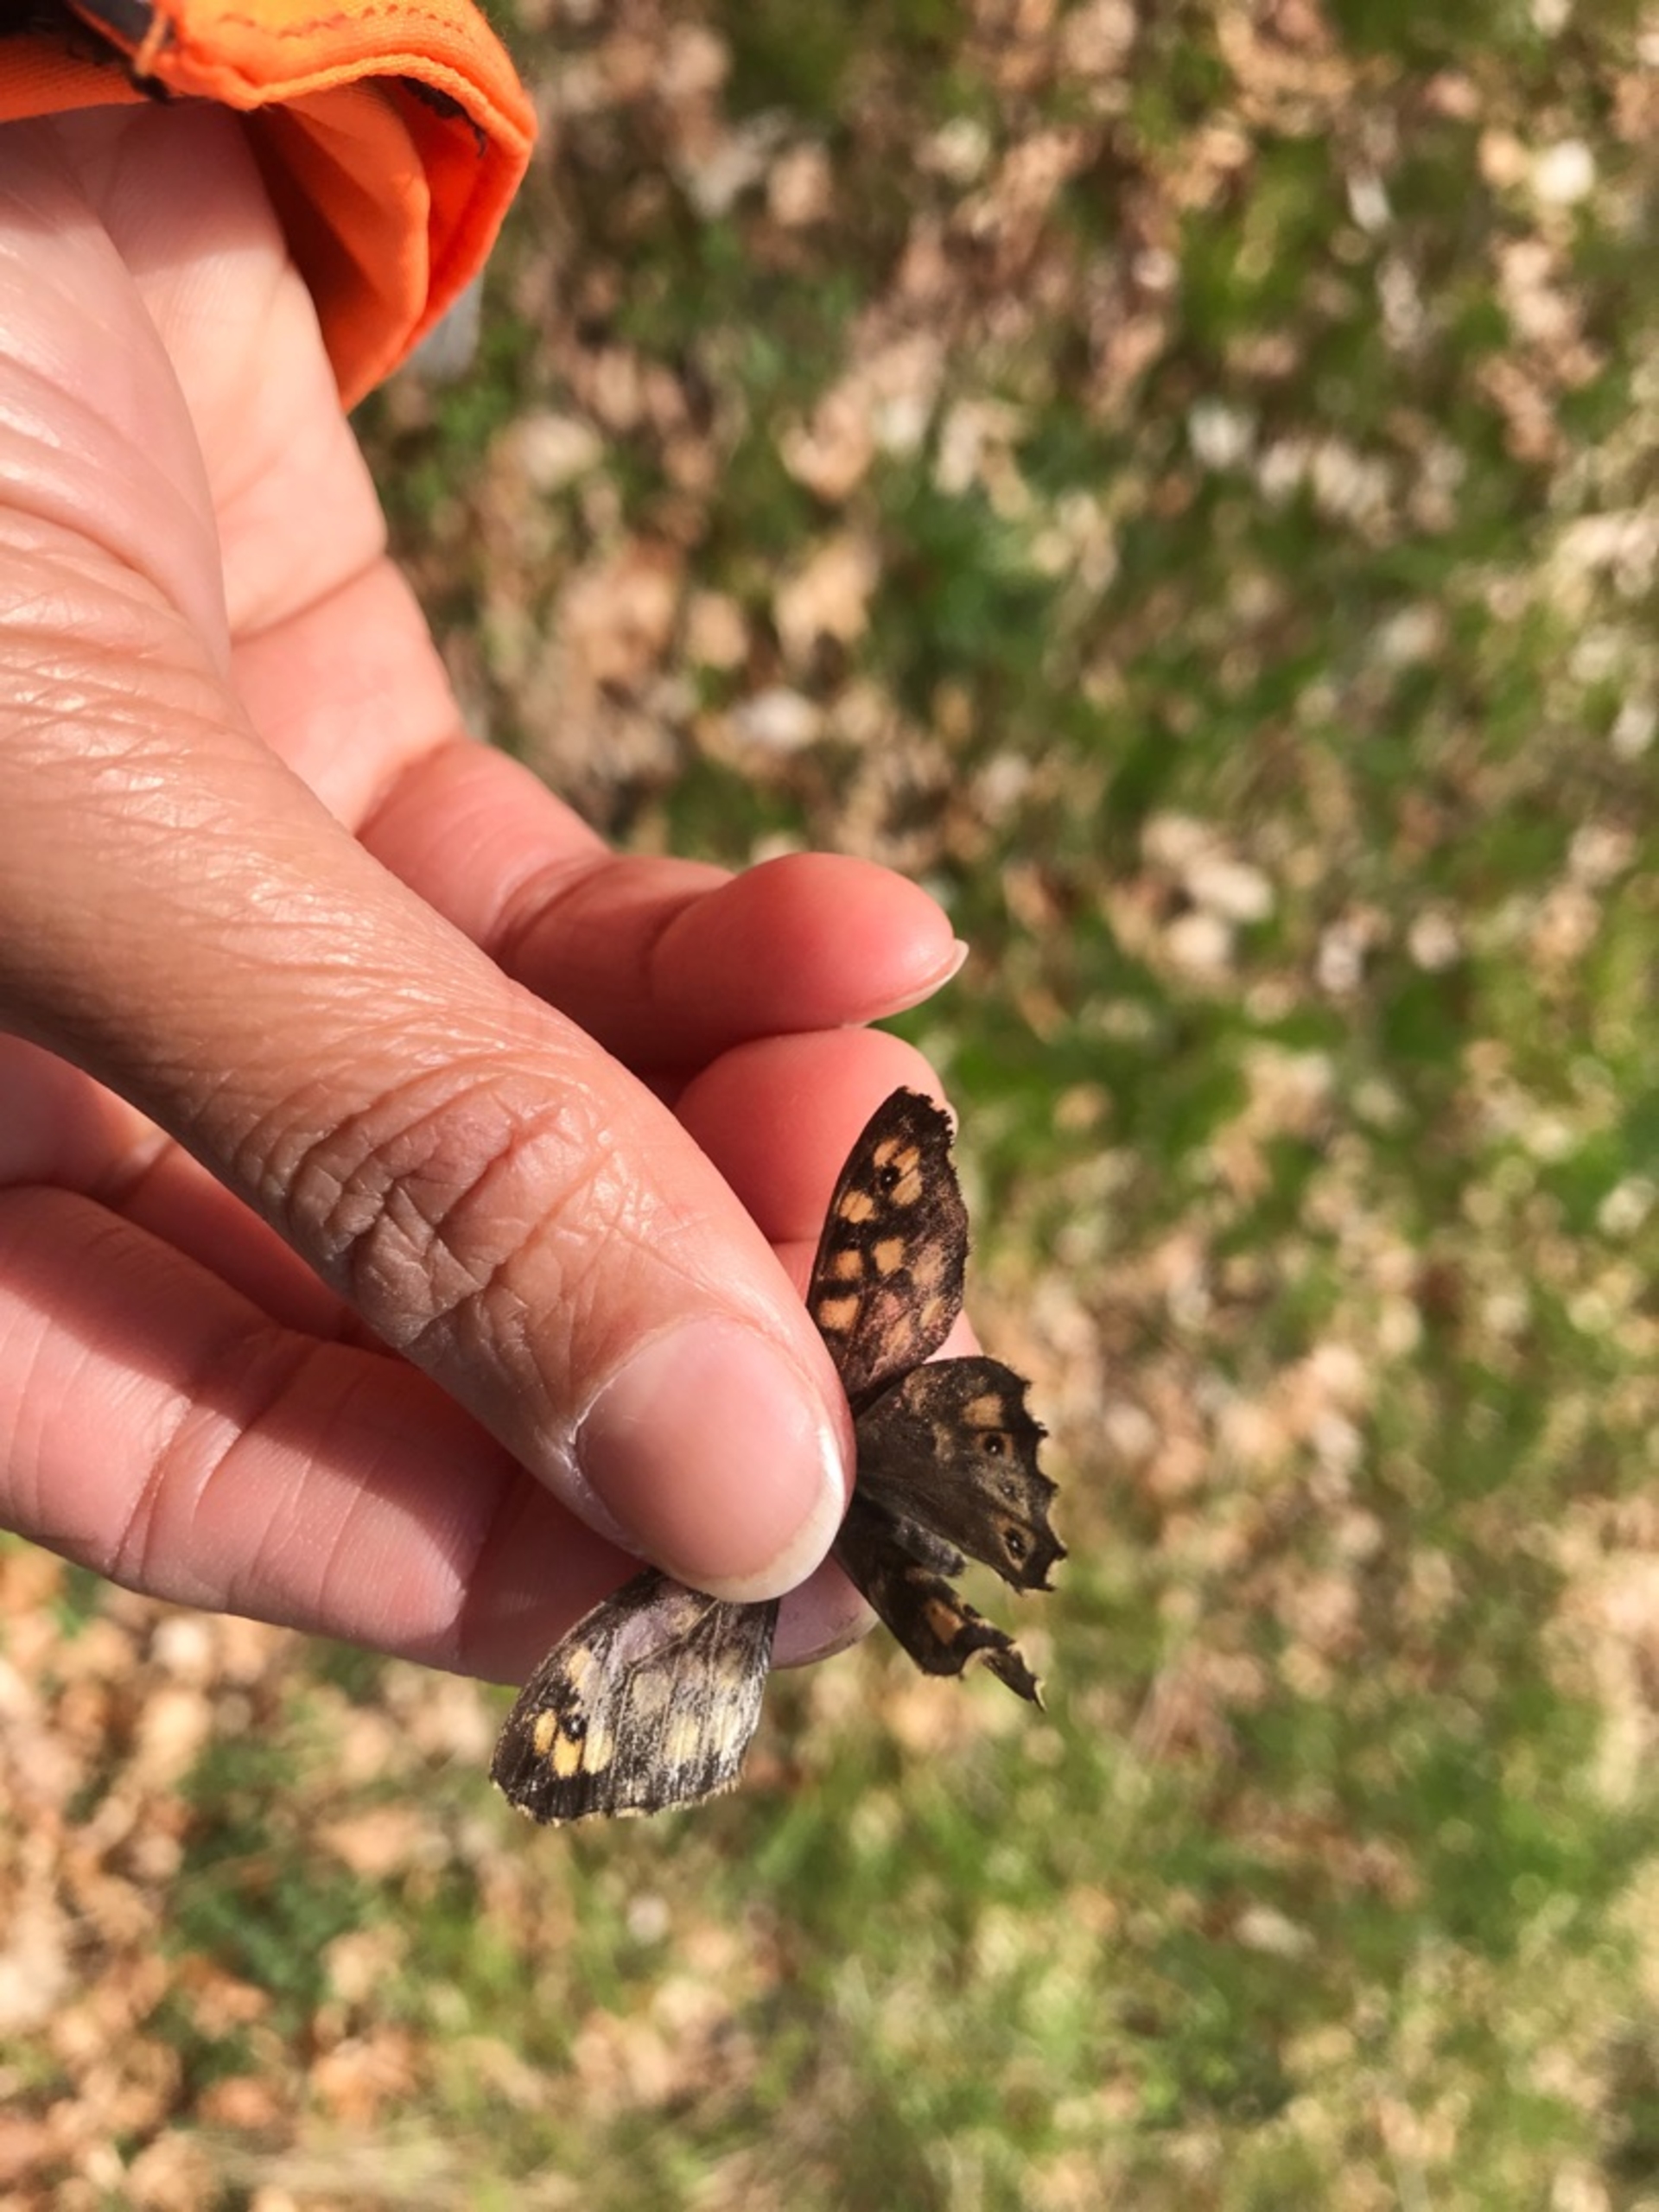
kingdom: Animalia
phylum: Arthropoda
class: Insecta
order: Lepidoptera
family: Nymphalidae
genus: Pararge
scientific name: Pararge aegeria
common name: Skovrandøje
